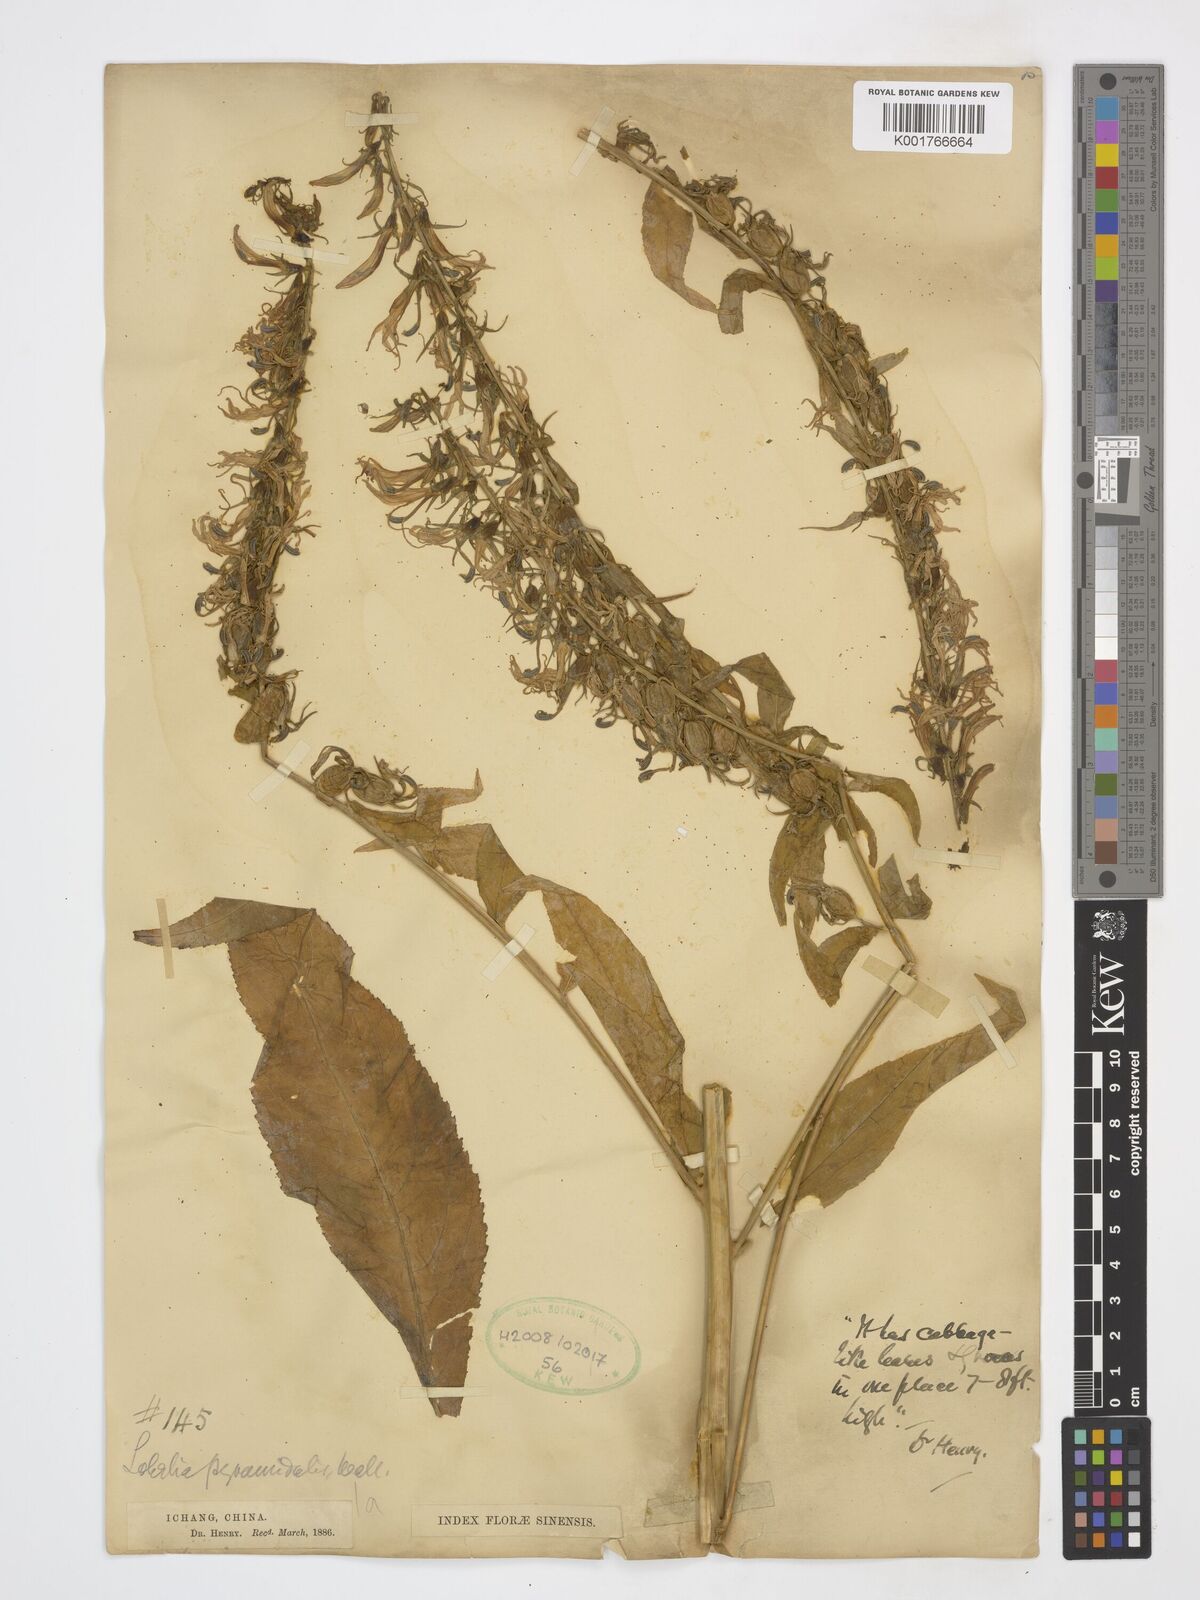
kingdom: Plantae
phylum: Tracheophyta
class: Magnoliopsida
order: Asterales
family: Campanulaceae
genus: Lobelia
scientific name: Lobelia pyramidalis
